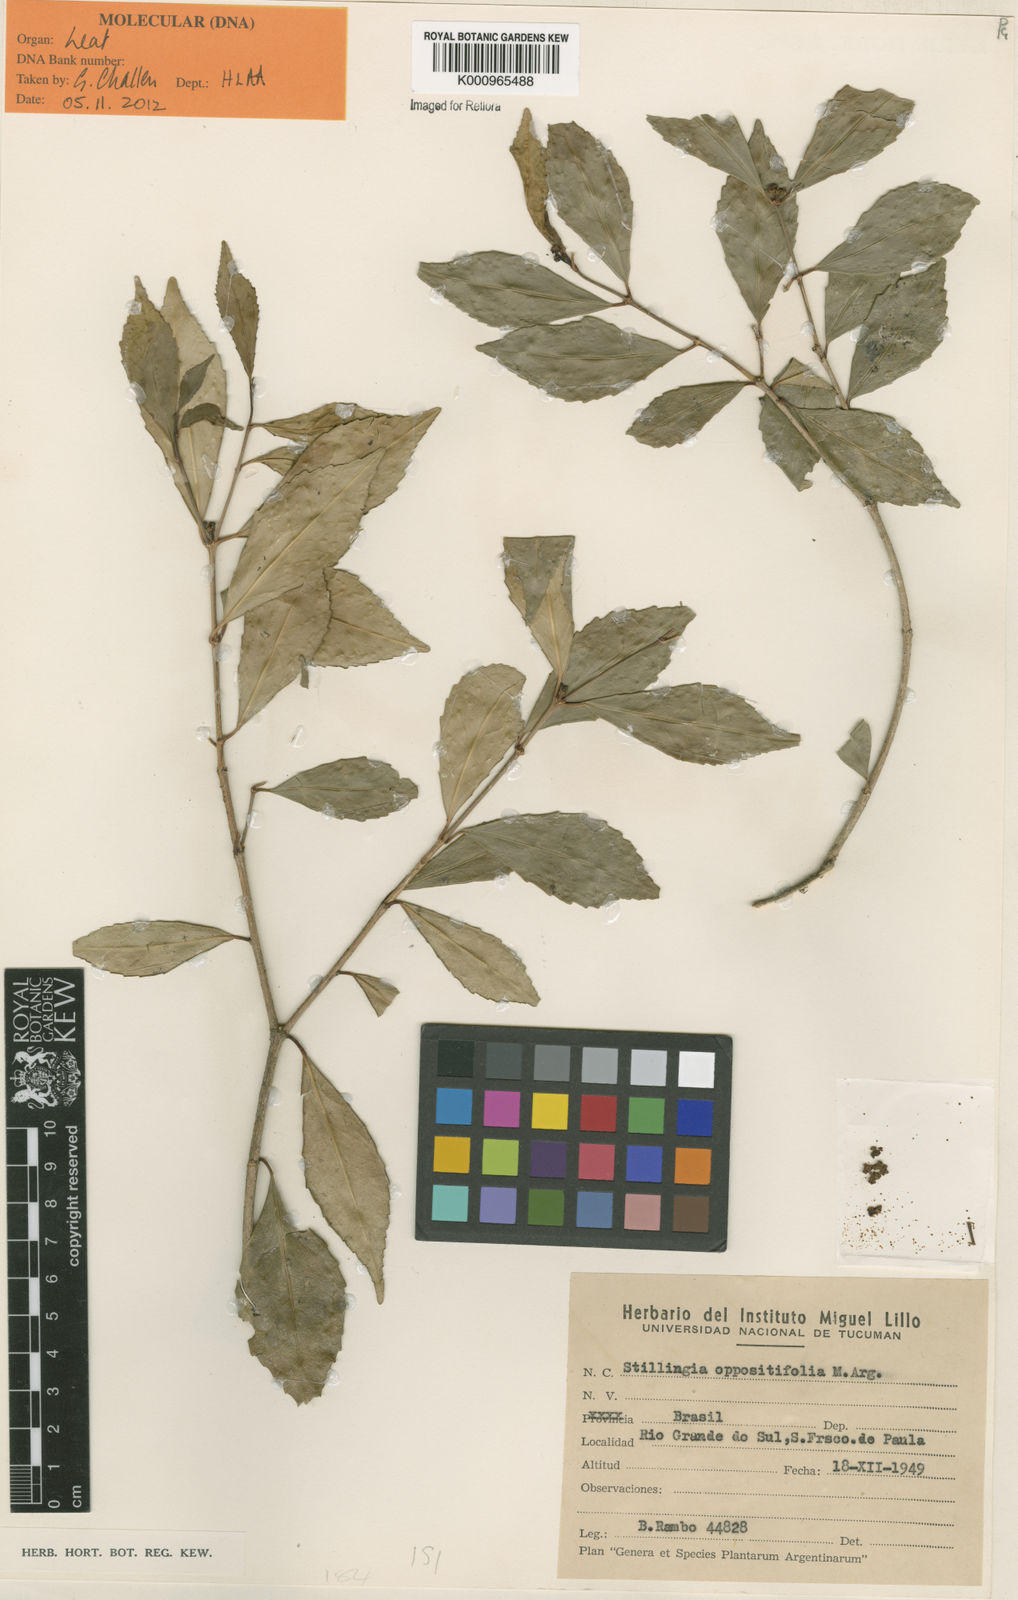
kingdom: Plantae
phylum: Tracheophyta
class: Magnoliopsida
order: Malpighiales
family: Euphorbiaceae
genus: Stillingia
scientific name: Stillingia
